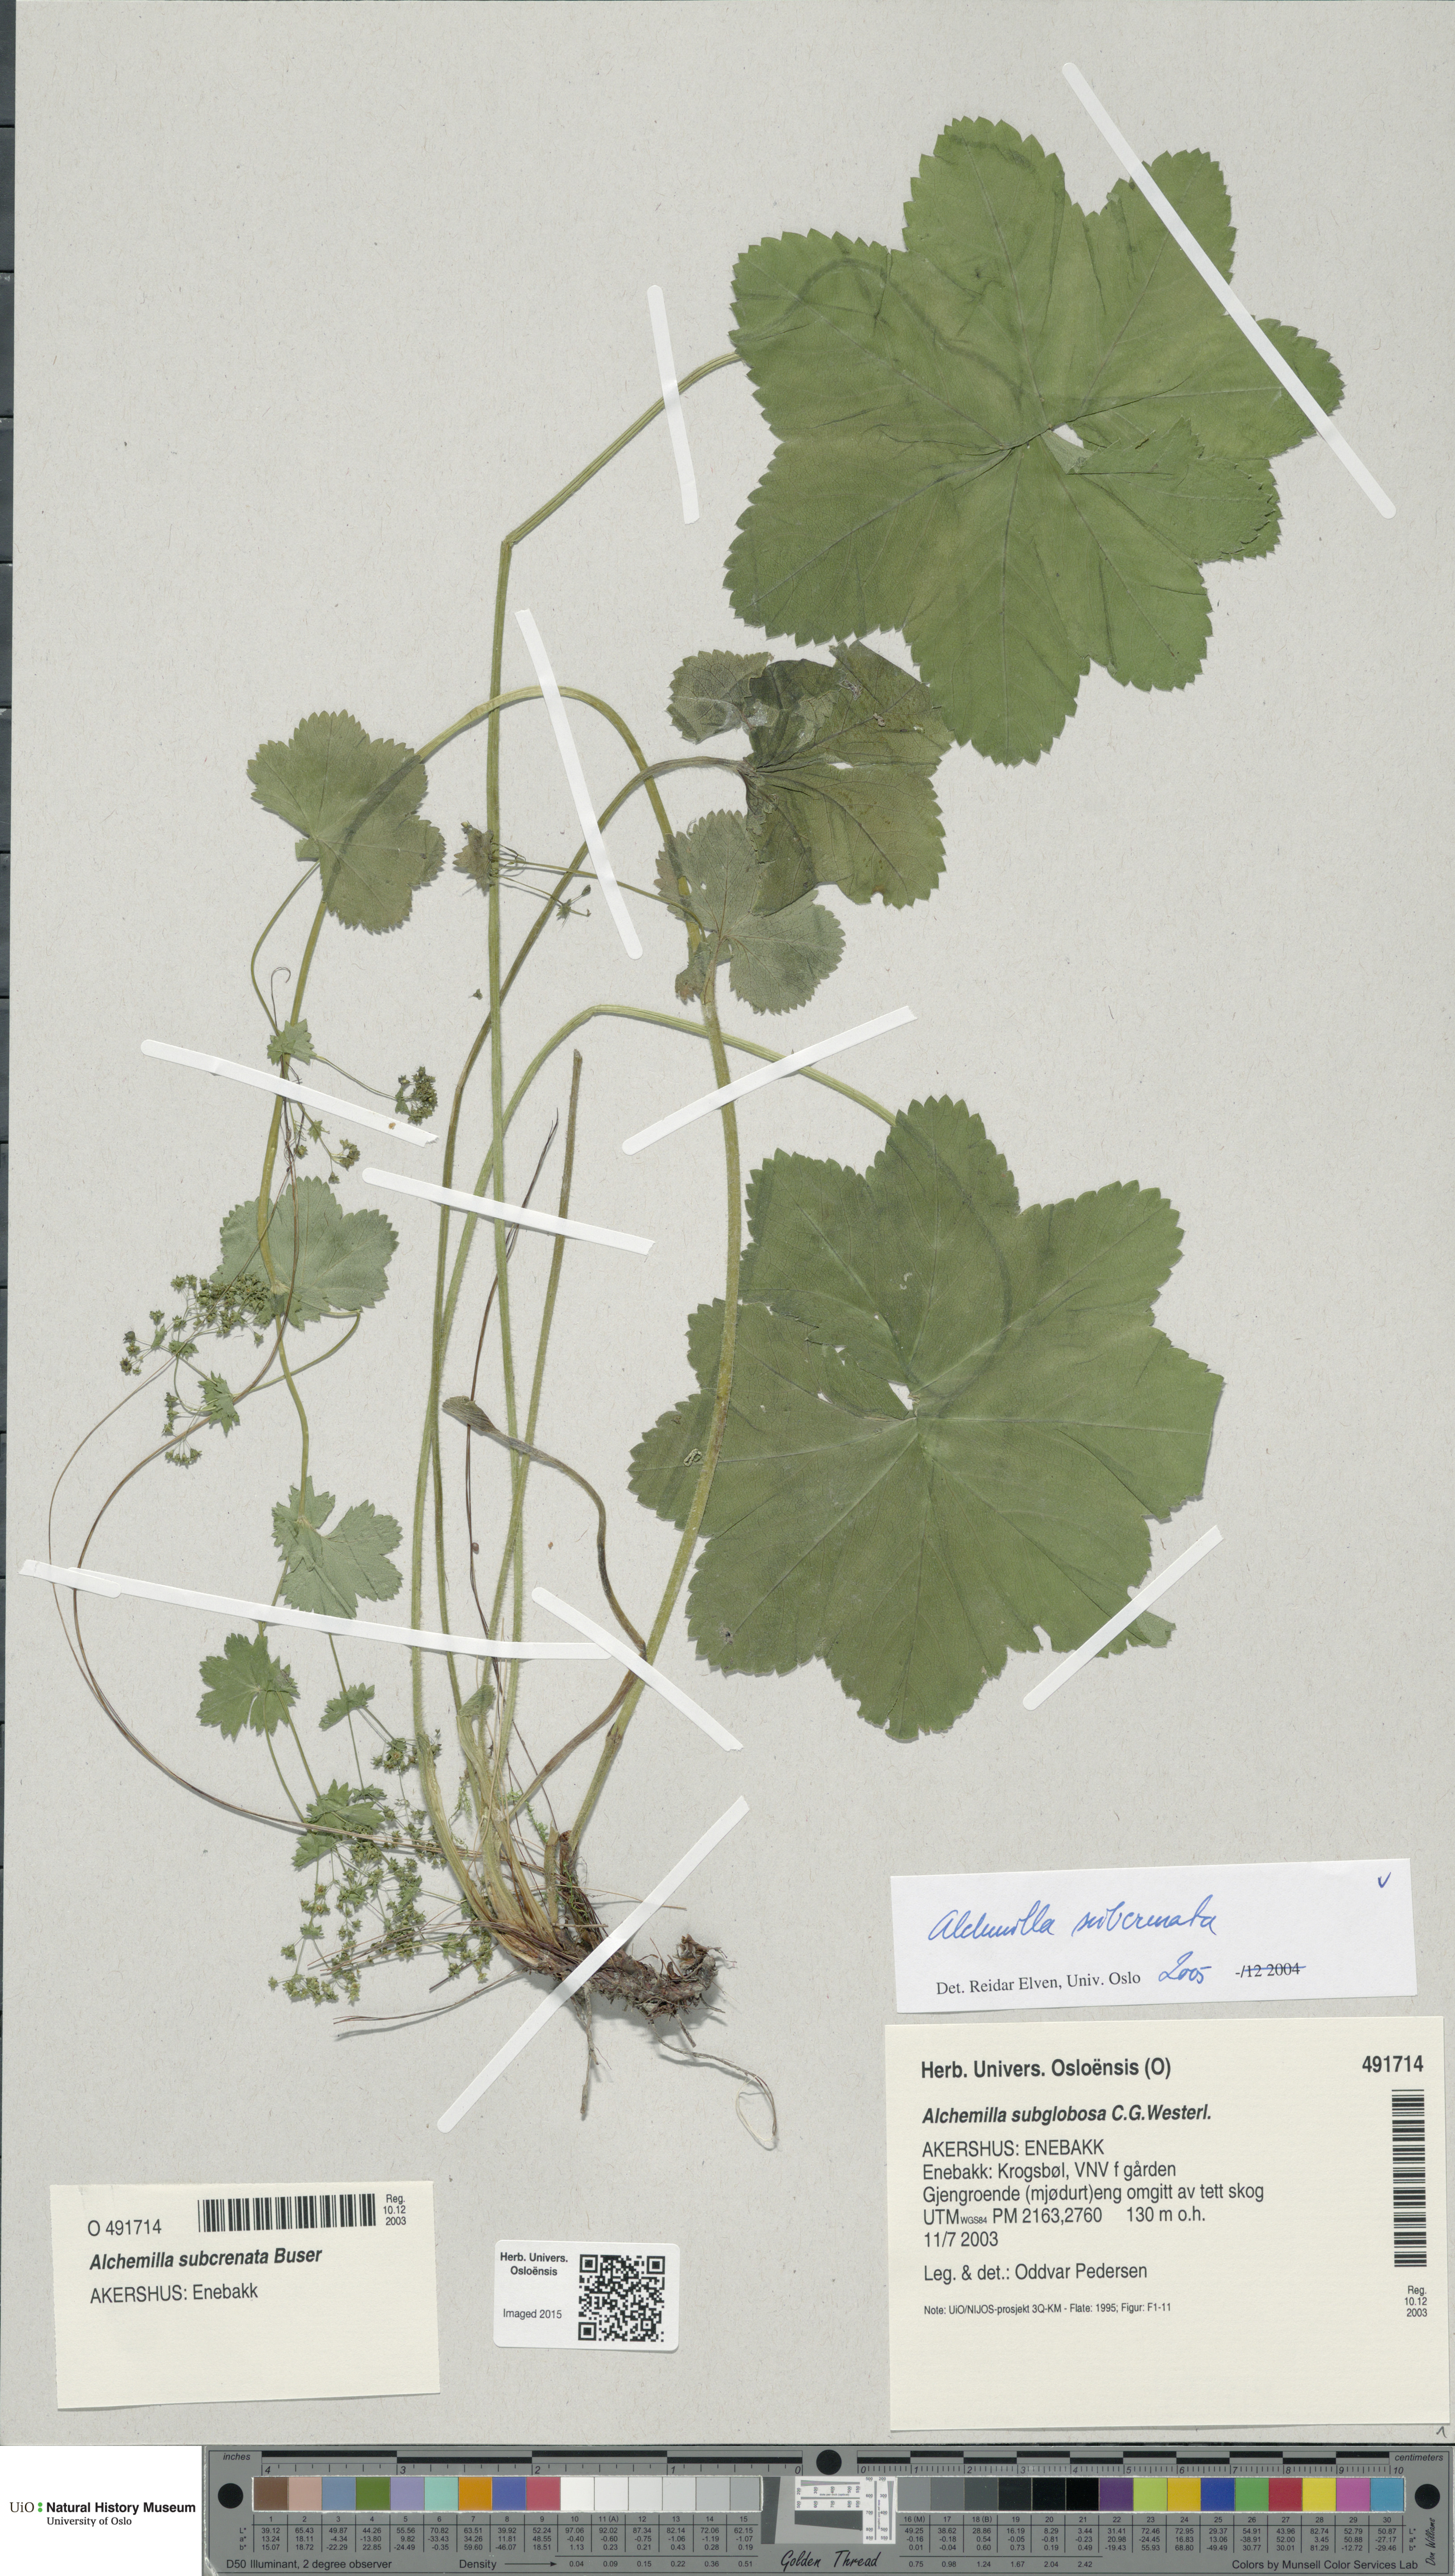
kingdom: Plantae
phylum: Tracheophyta
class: Magnoliopsida
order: Rosales
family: Rosaceae
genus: Alchemilla
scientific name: Alchemilla subcrenata
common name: Broadtooth lady's mantle
